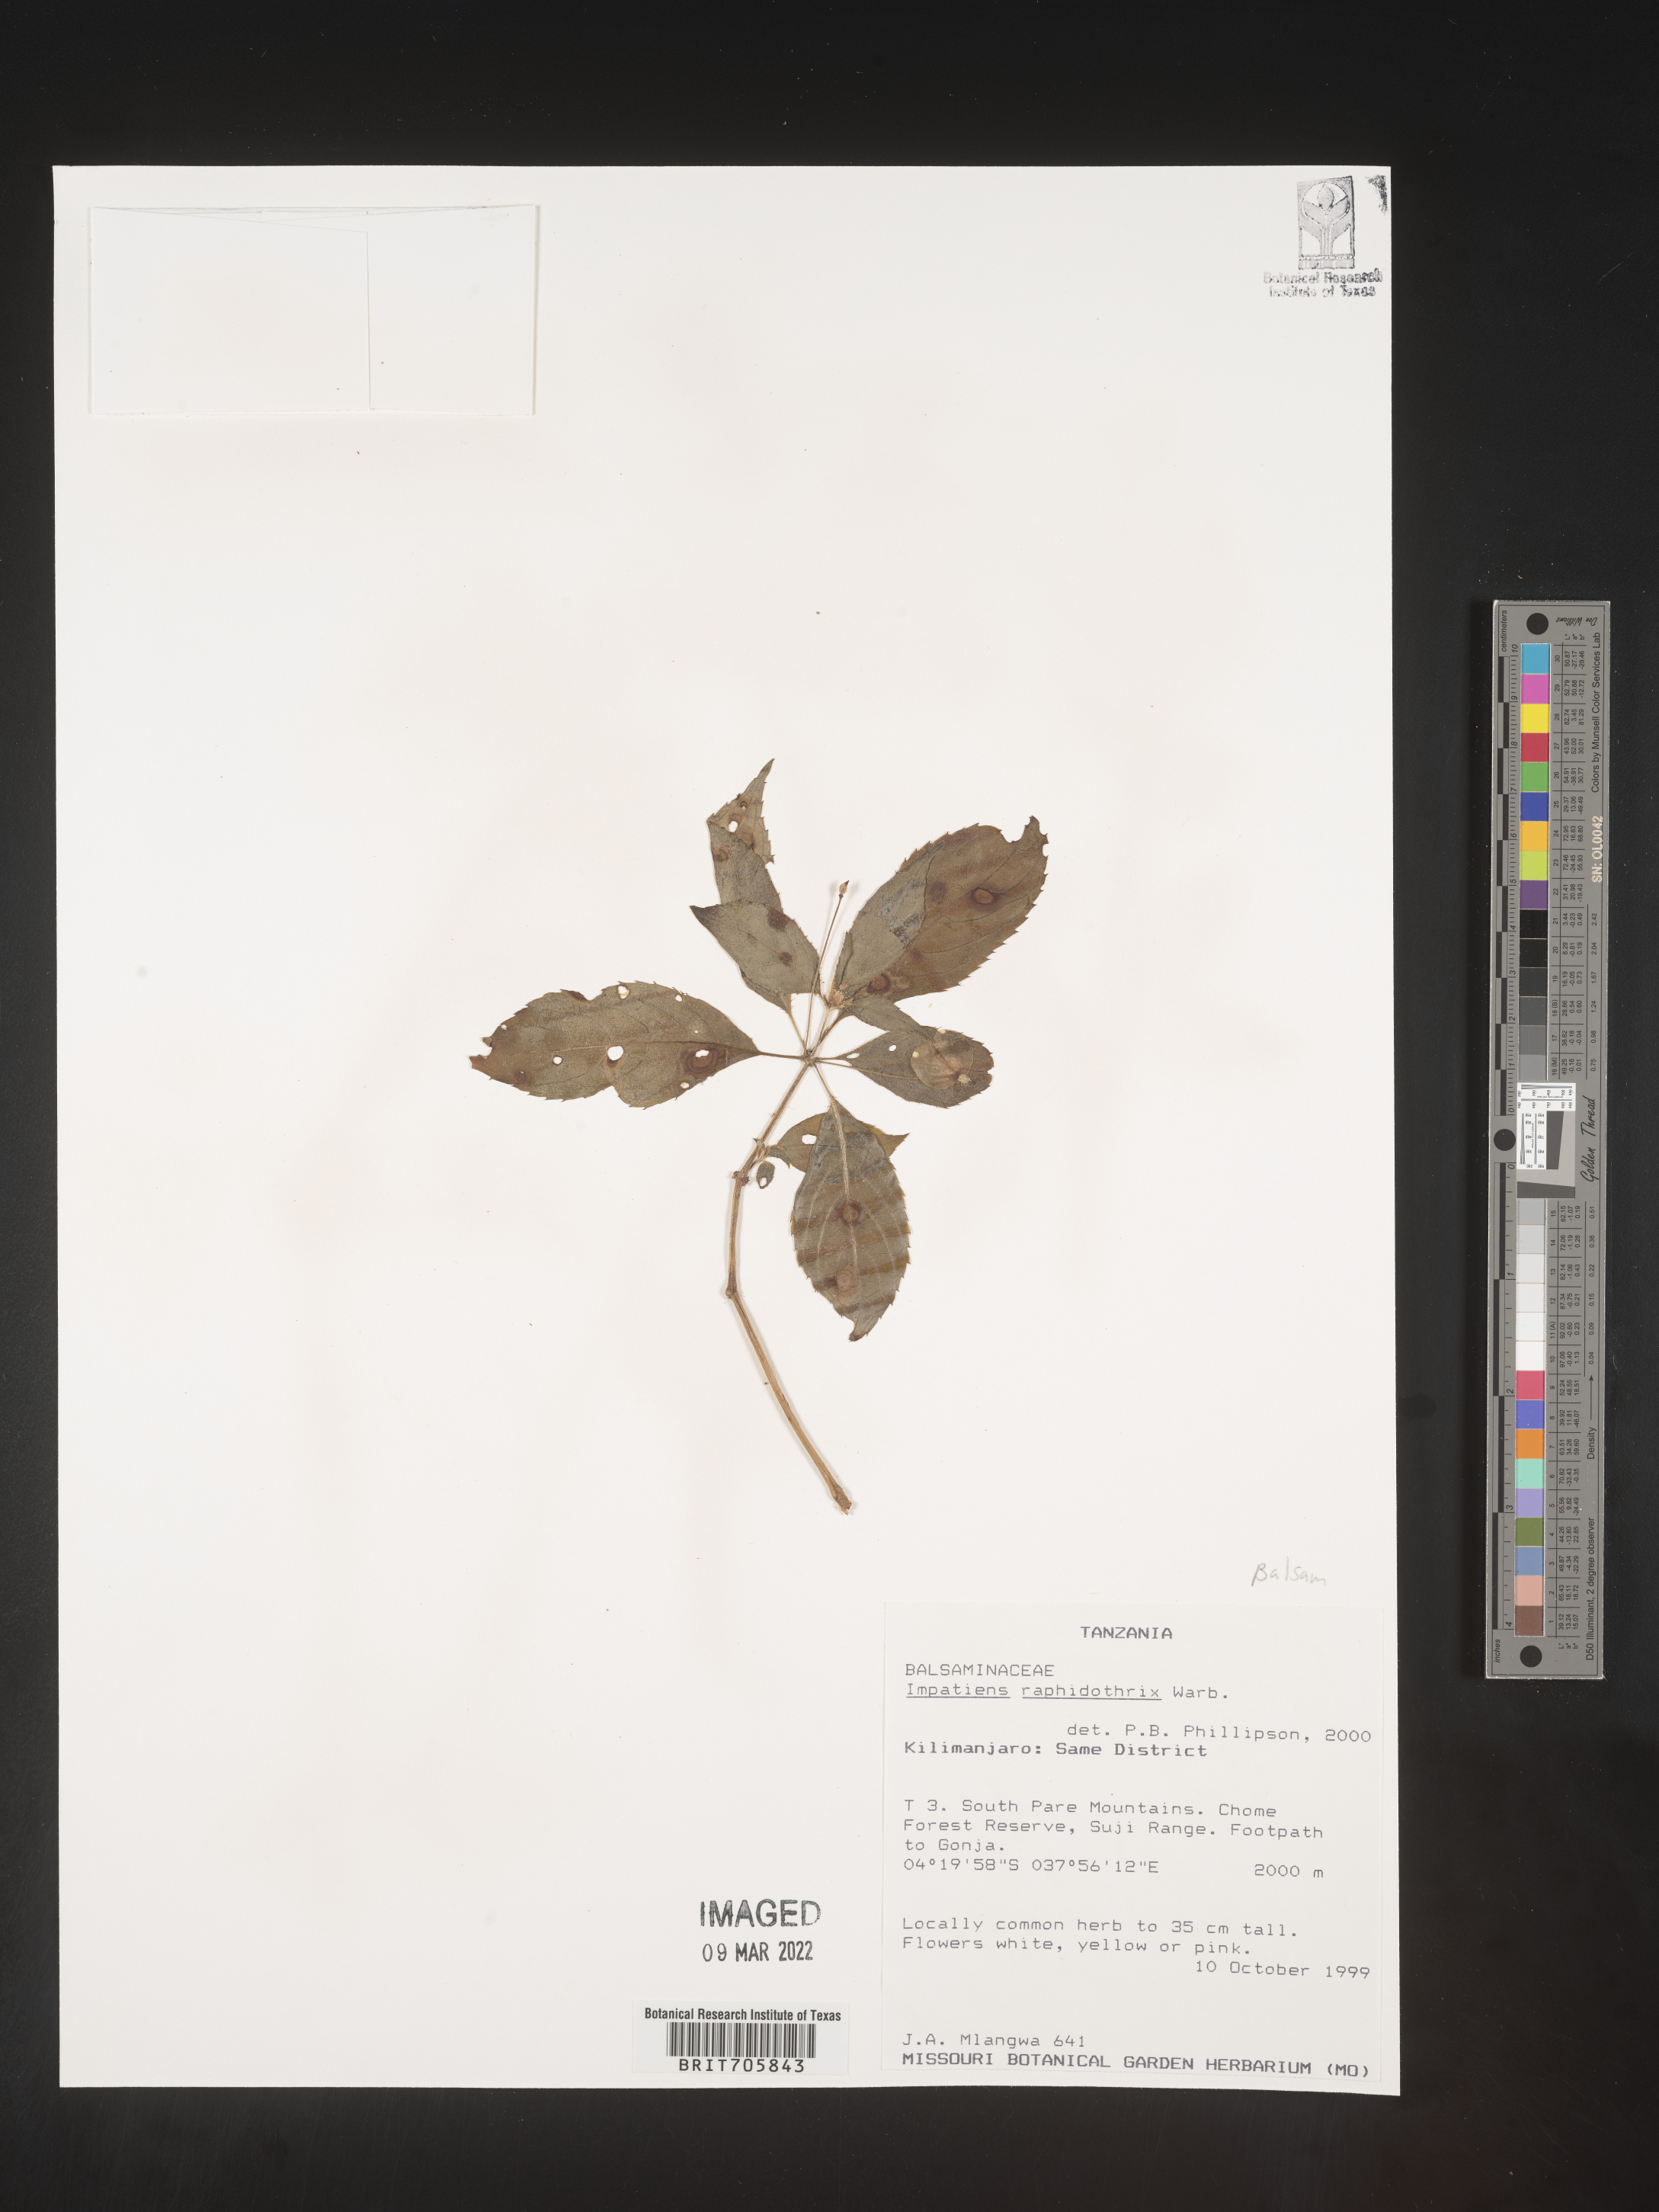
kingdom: Plantae
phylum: Tracheophyta
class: Magnoliopsida
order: Ericales
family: Balsaminaceae
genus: Impatiens
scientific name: Impatiens
